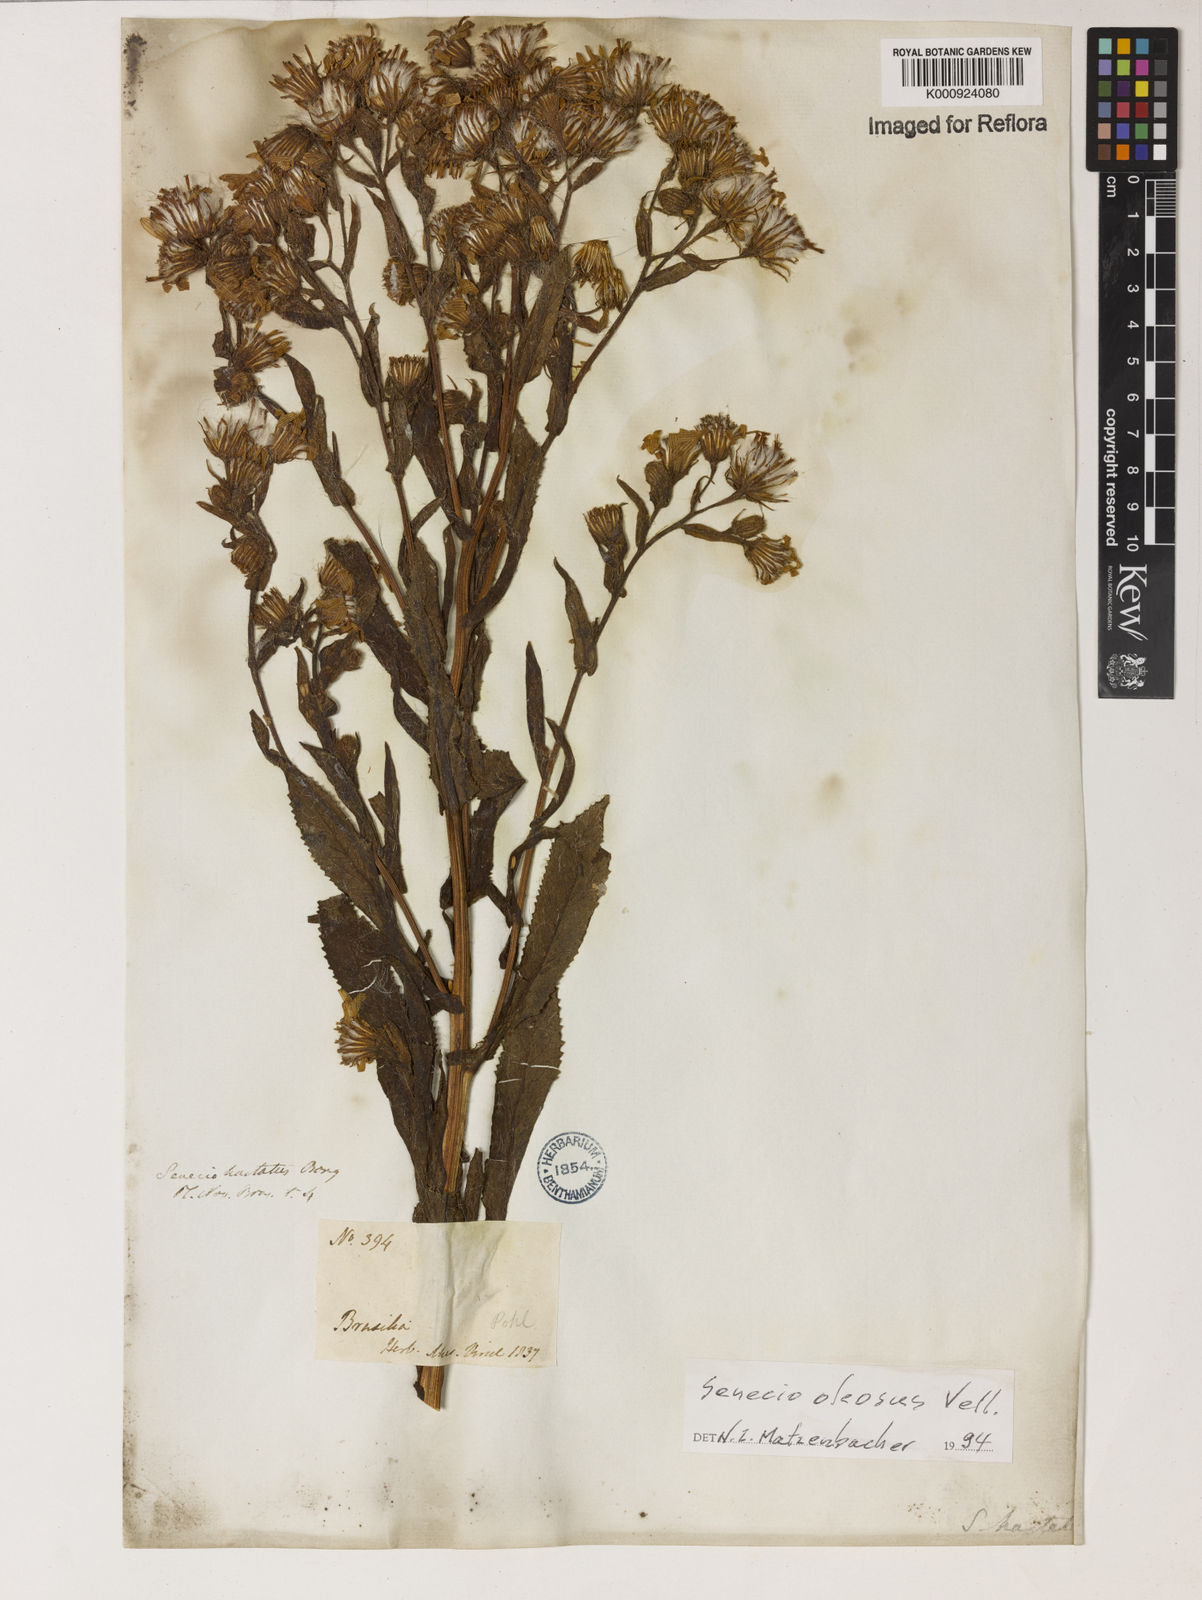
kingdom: Plantae
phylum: Tracheophyta
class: Magnoliopsida
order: Asterales
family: Asteraceae
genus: Senecio
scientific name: Senecio oleosus
